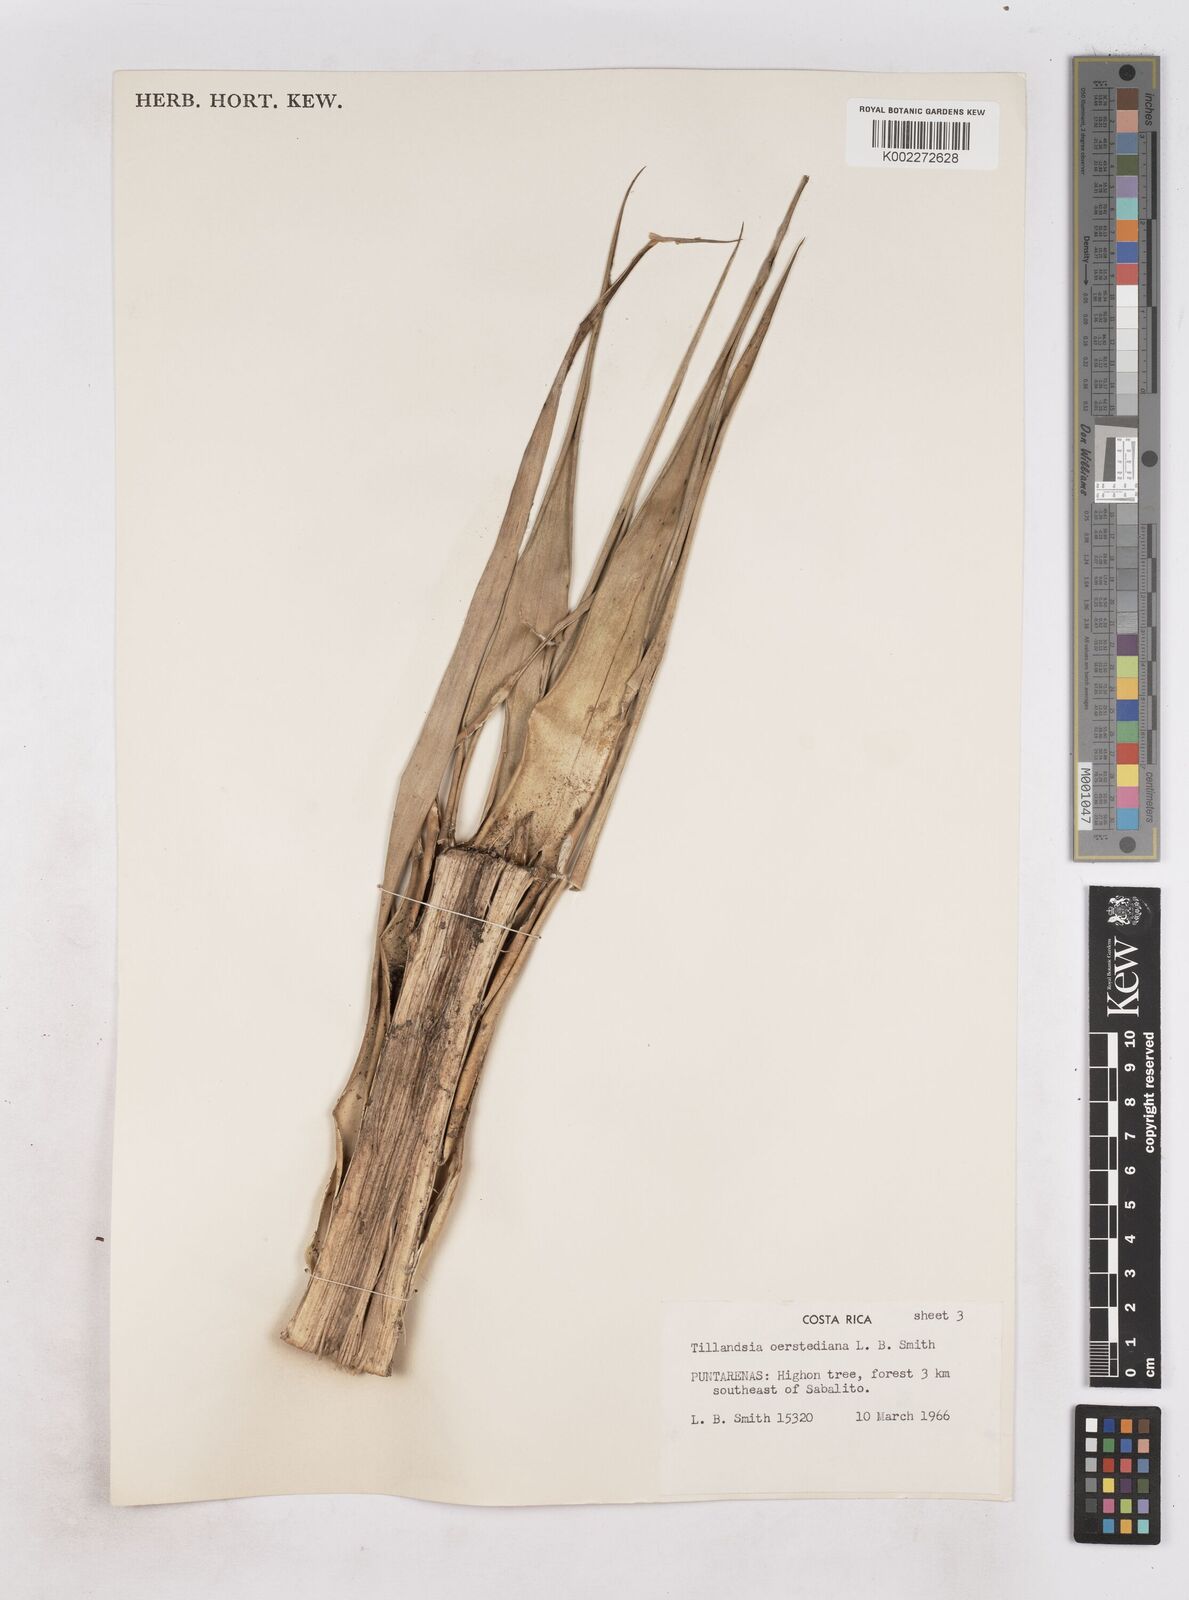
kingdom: Plantae
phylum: Tracheophyta
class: Liliopsida
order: Poales
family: Bromeliaceae
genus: Tillandsia
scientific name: Tillandsia oerstediana
